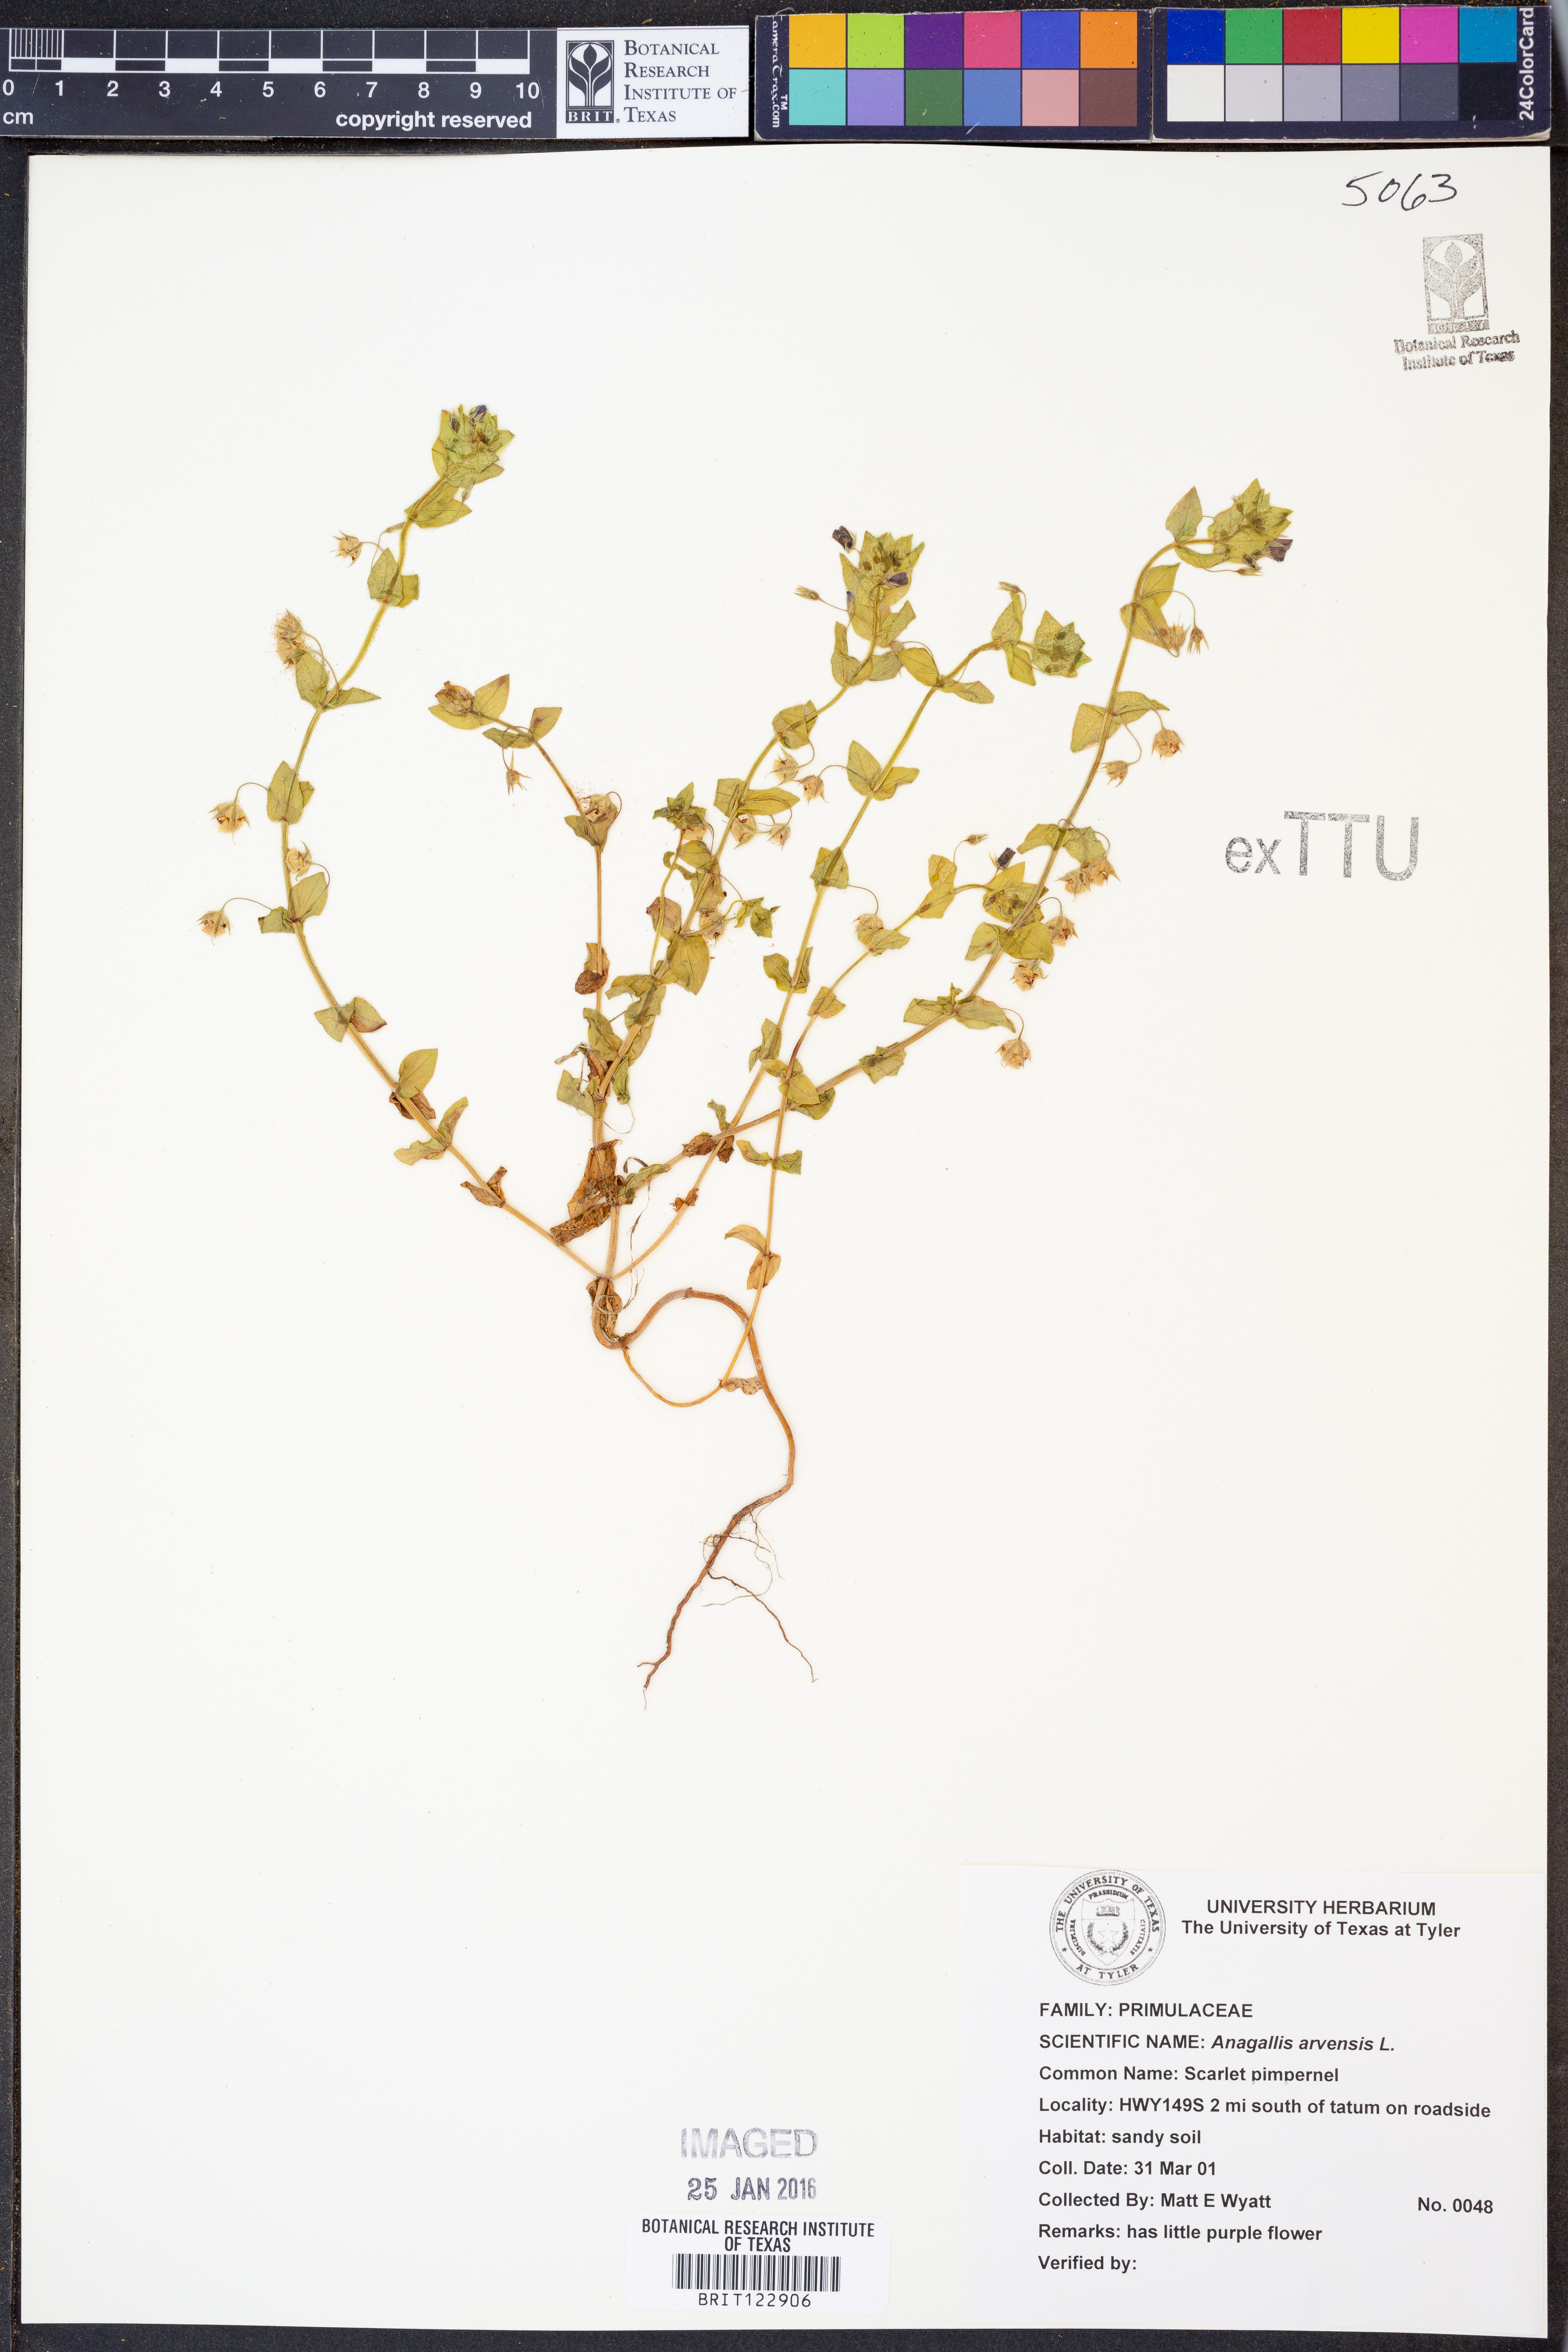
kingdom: Plantae
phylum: Tracheophyta
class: Magnoliopsida
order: Ericales
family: Primulaceae
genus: Lysimachia
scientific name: Lysimachia arvensis
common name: Scarlet pimpernel
